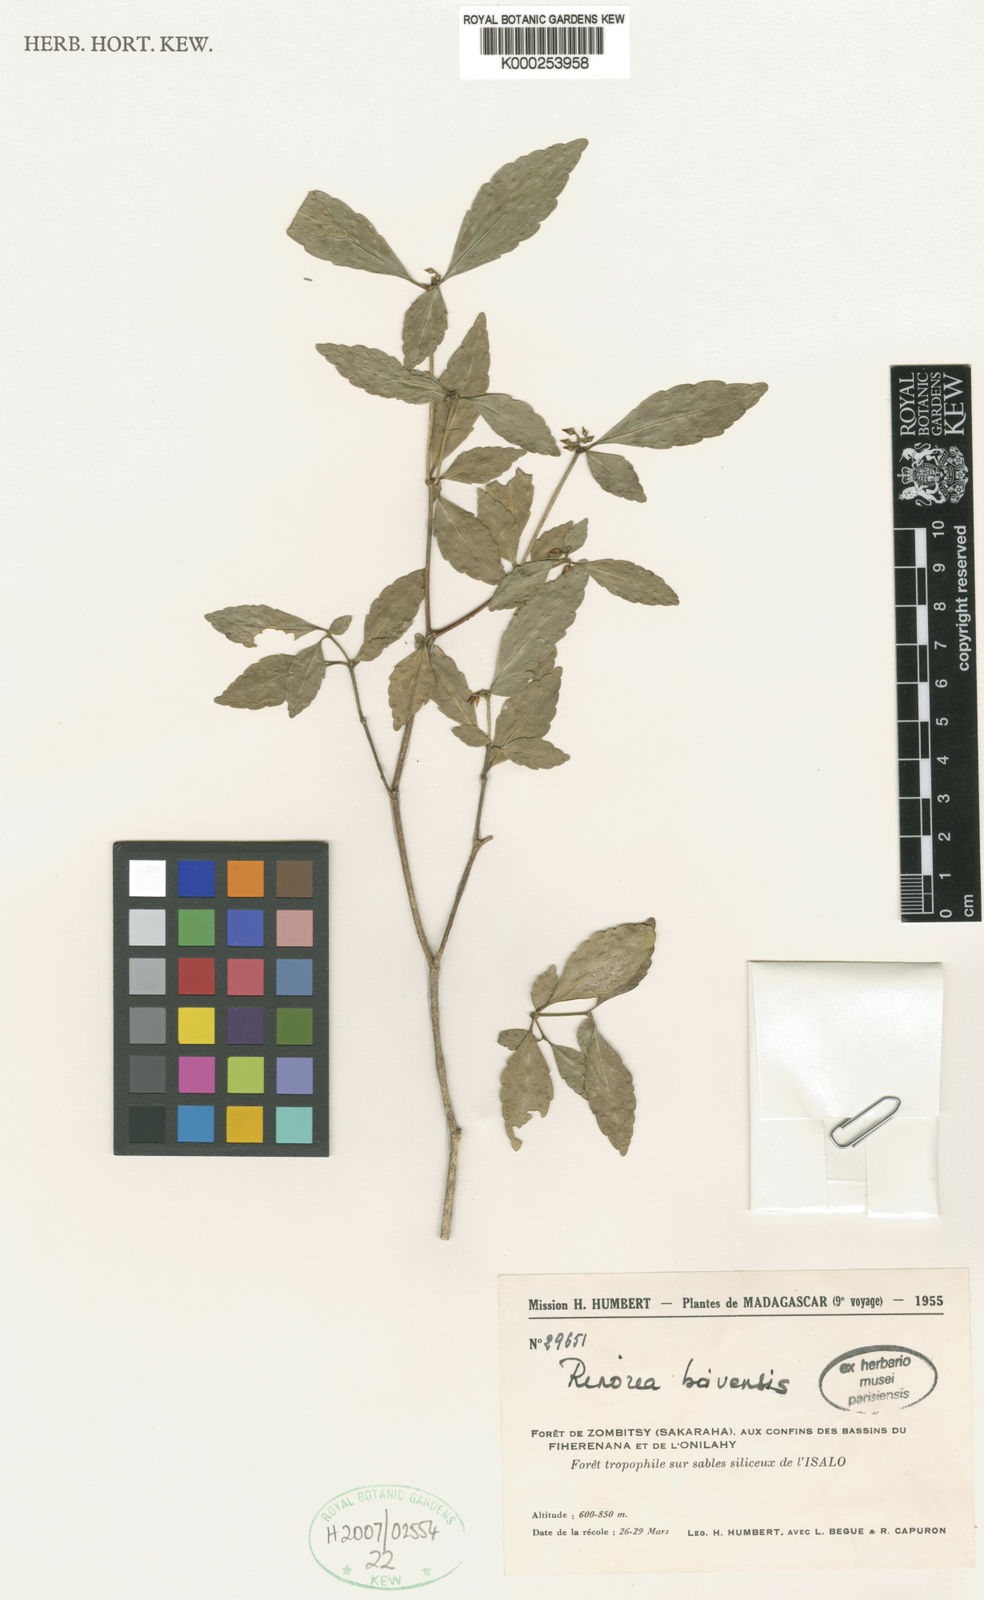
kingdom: Plantae
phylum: Tracheophyta
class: Magnoliopsida
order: Malpighiales
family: Violaceae
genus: Rinorea
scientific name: Rinorea
